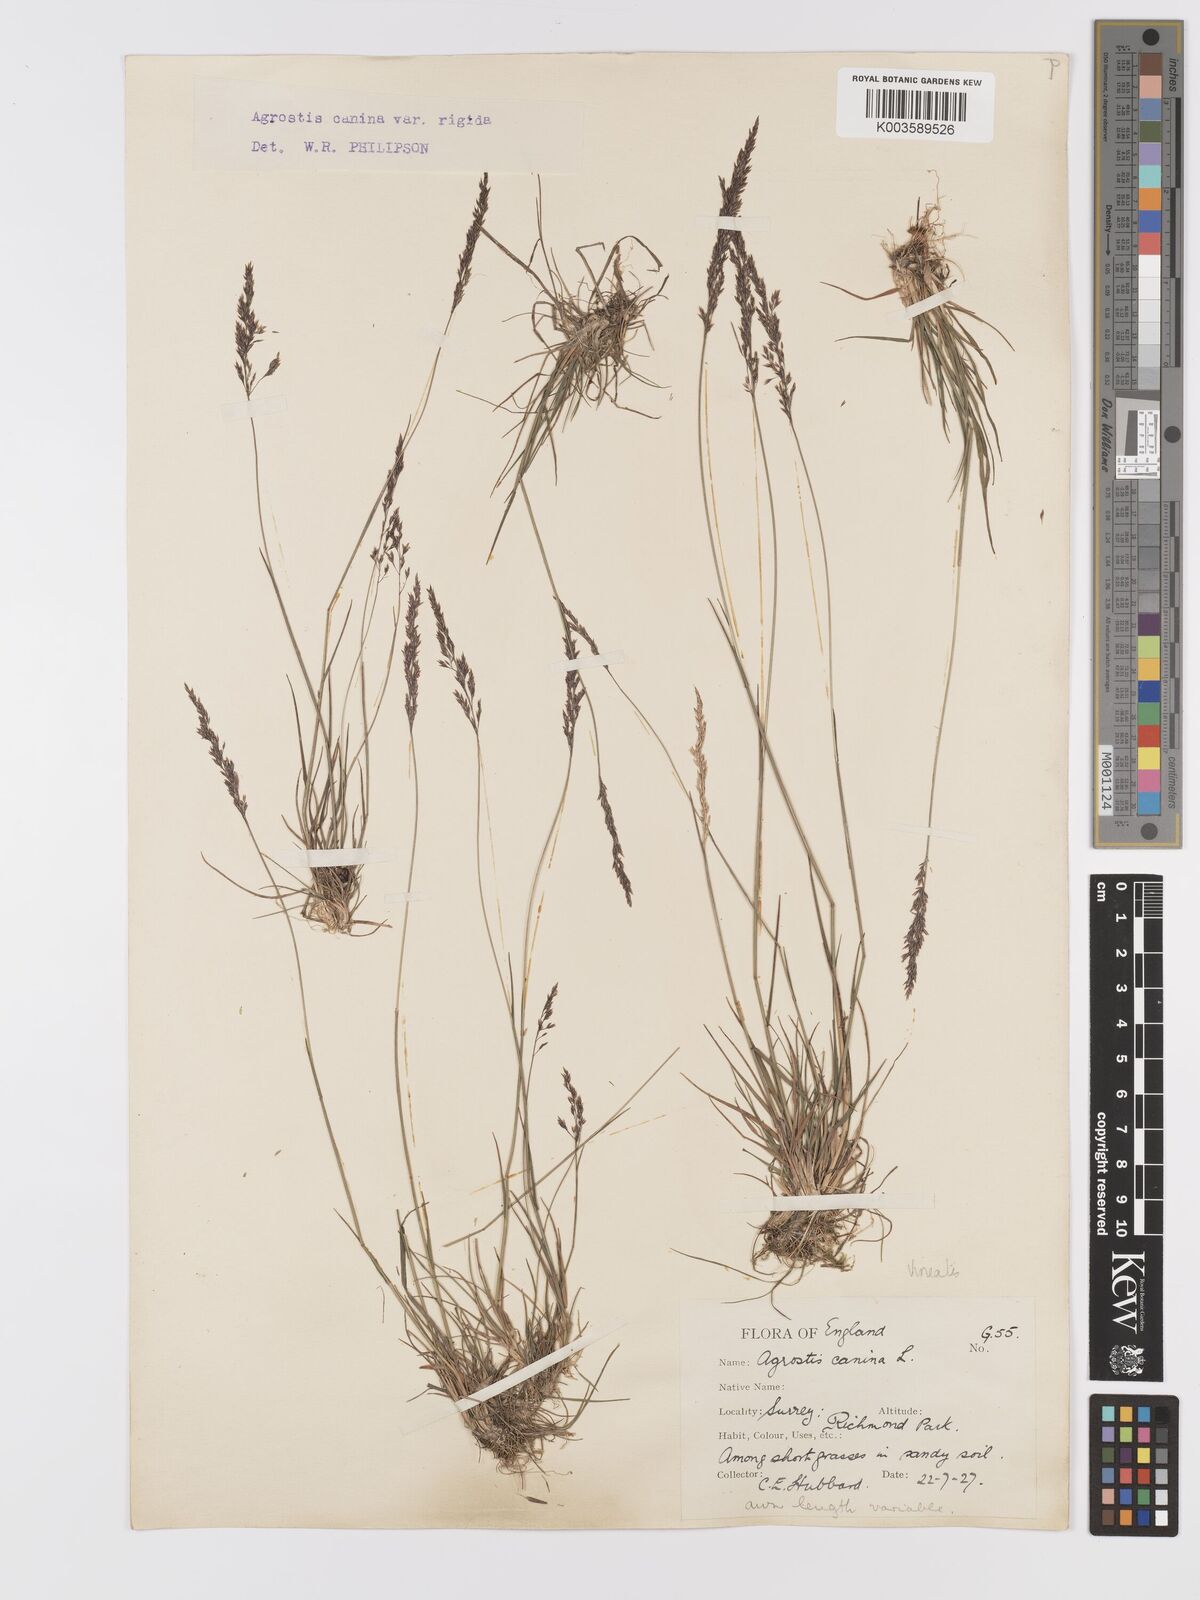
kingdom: Plantae
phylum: Tracheophyta
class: Liliopsida
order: Poales
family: Poaceae
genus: Agrostis
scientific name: Agrostis
